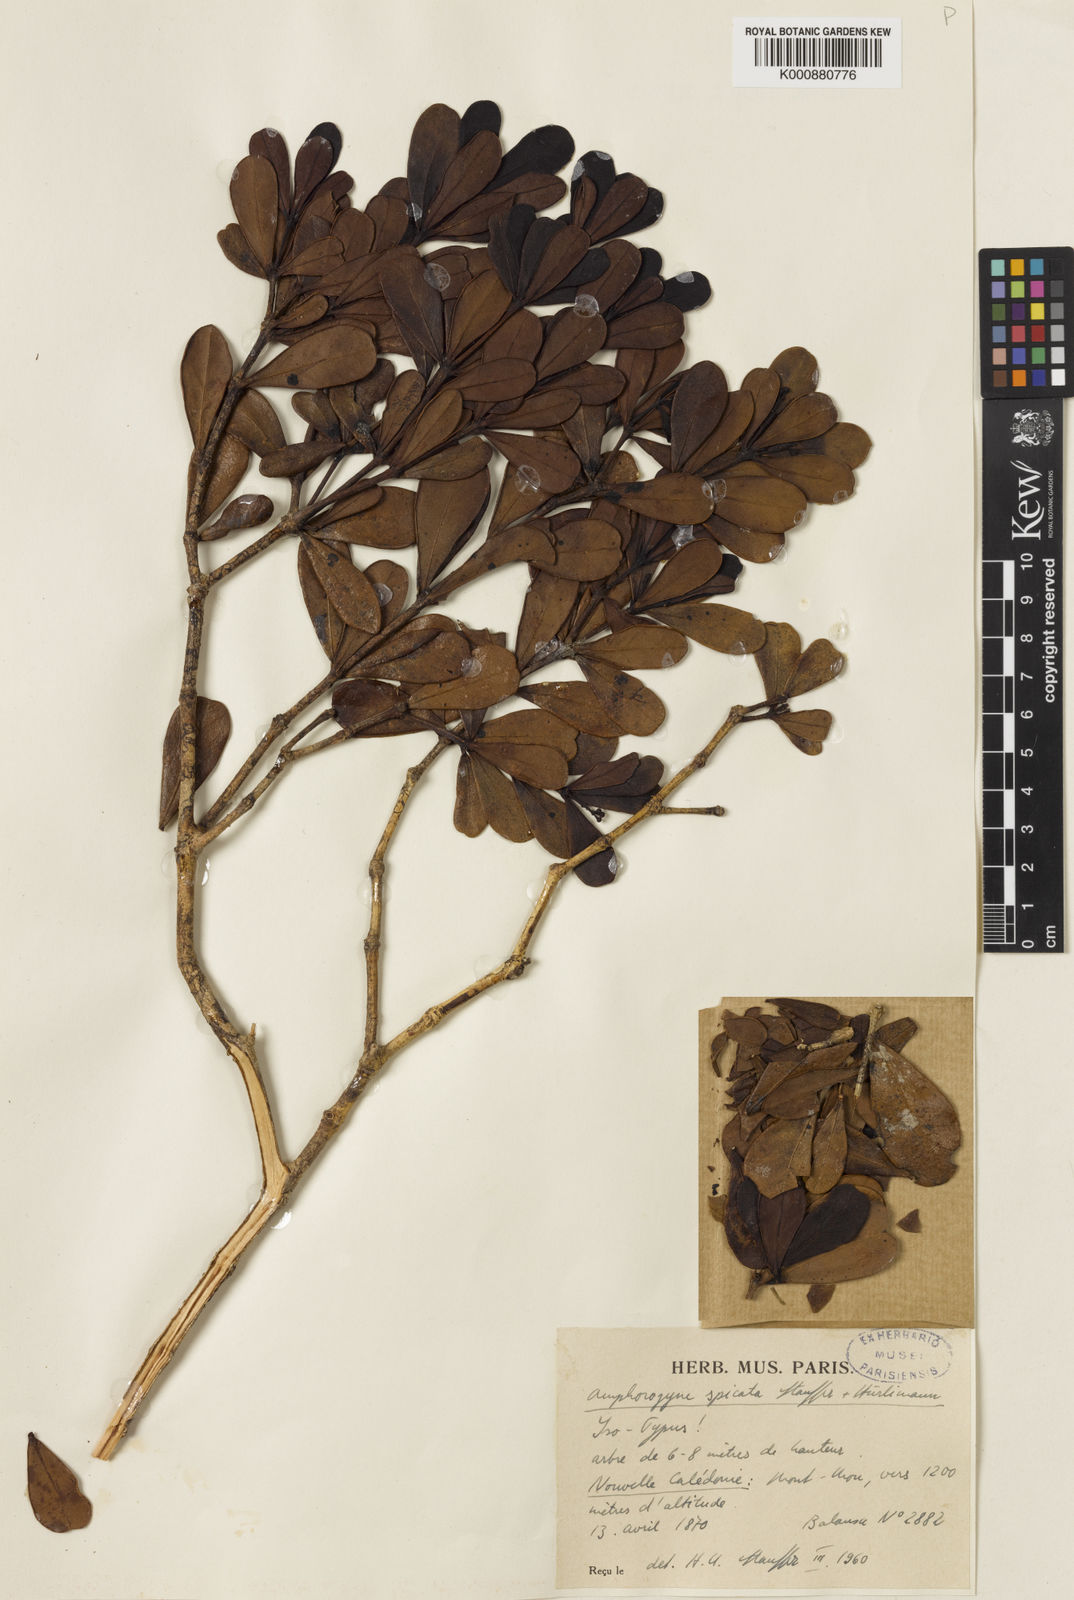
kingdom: Plantae
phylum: Tracheophyta
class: Magnoliopsida
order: Santalales
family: Amphorogynaceae
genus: Amphorogyne
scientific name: Amphorogyne spicata
